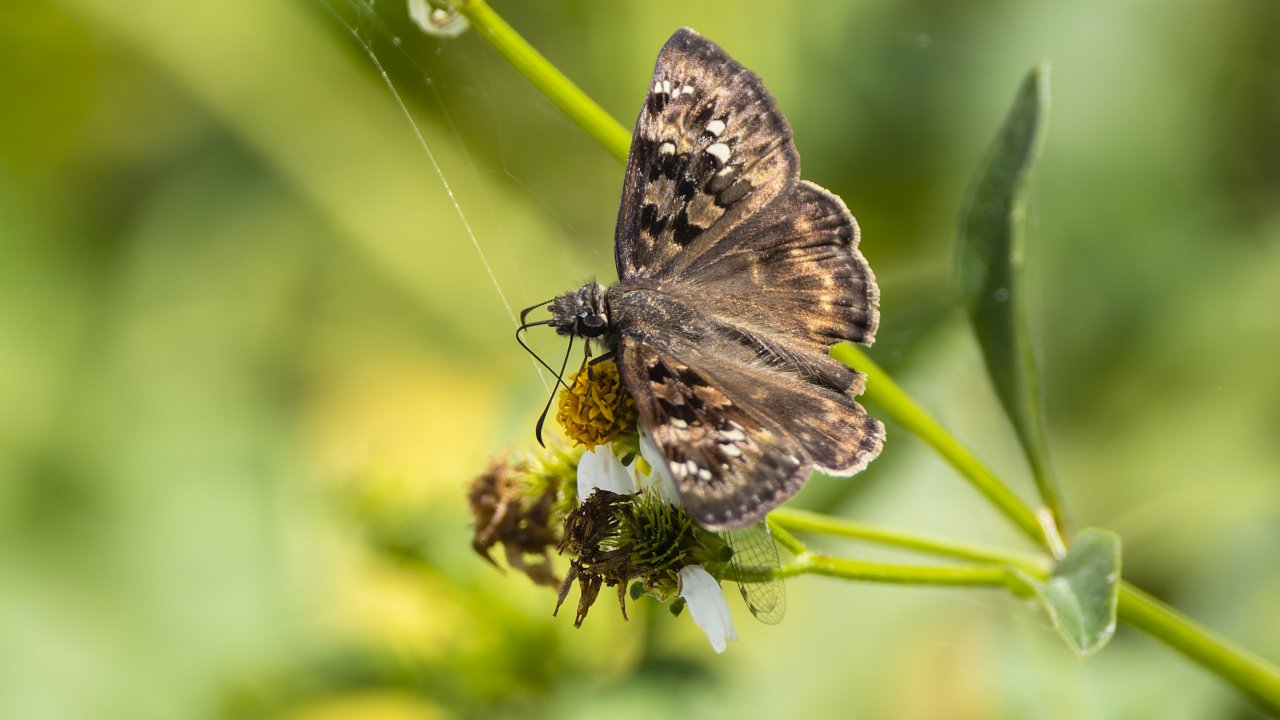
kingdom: Animalia
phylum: Arthropoda
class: Insecta
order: Lepidoptera
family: Hesperiidae
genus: Gesta
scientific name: Gesta
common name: Horace's Duskywing
